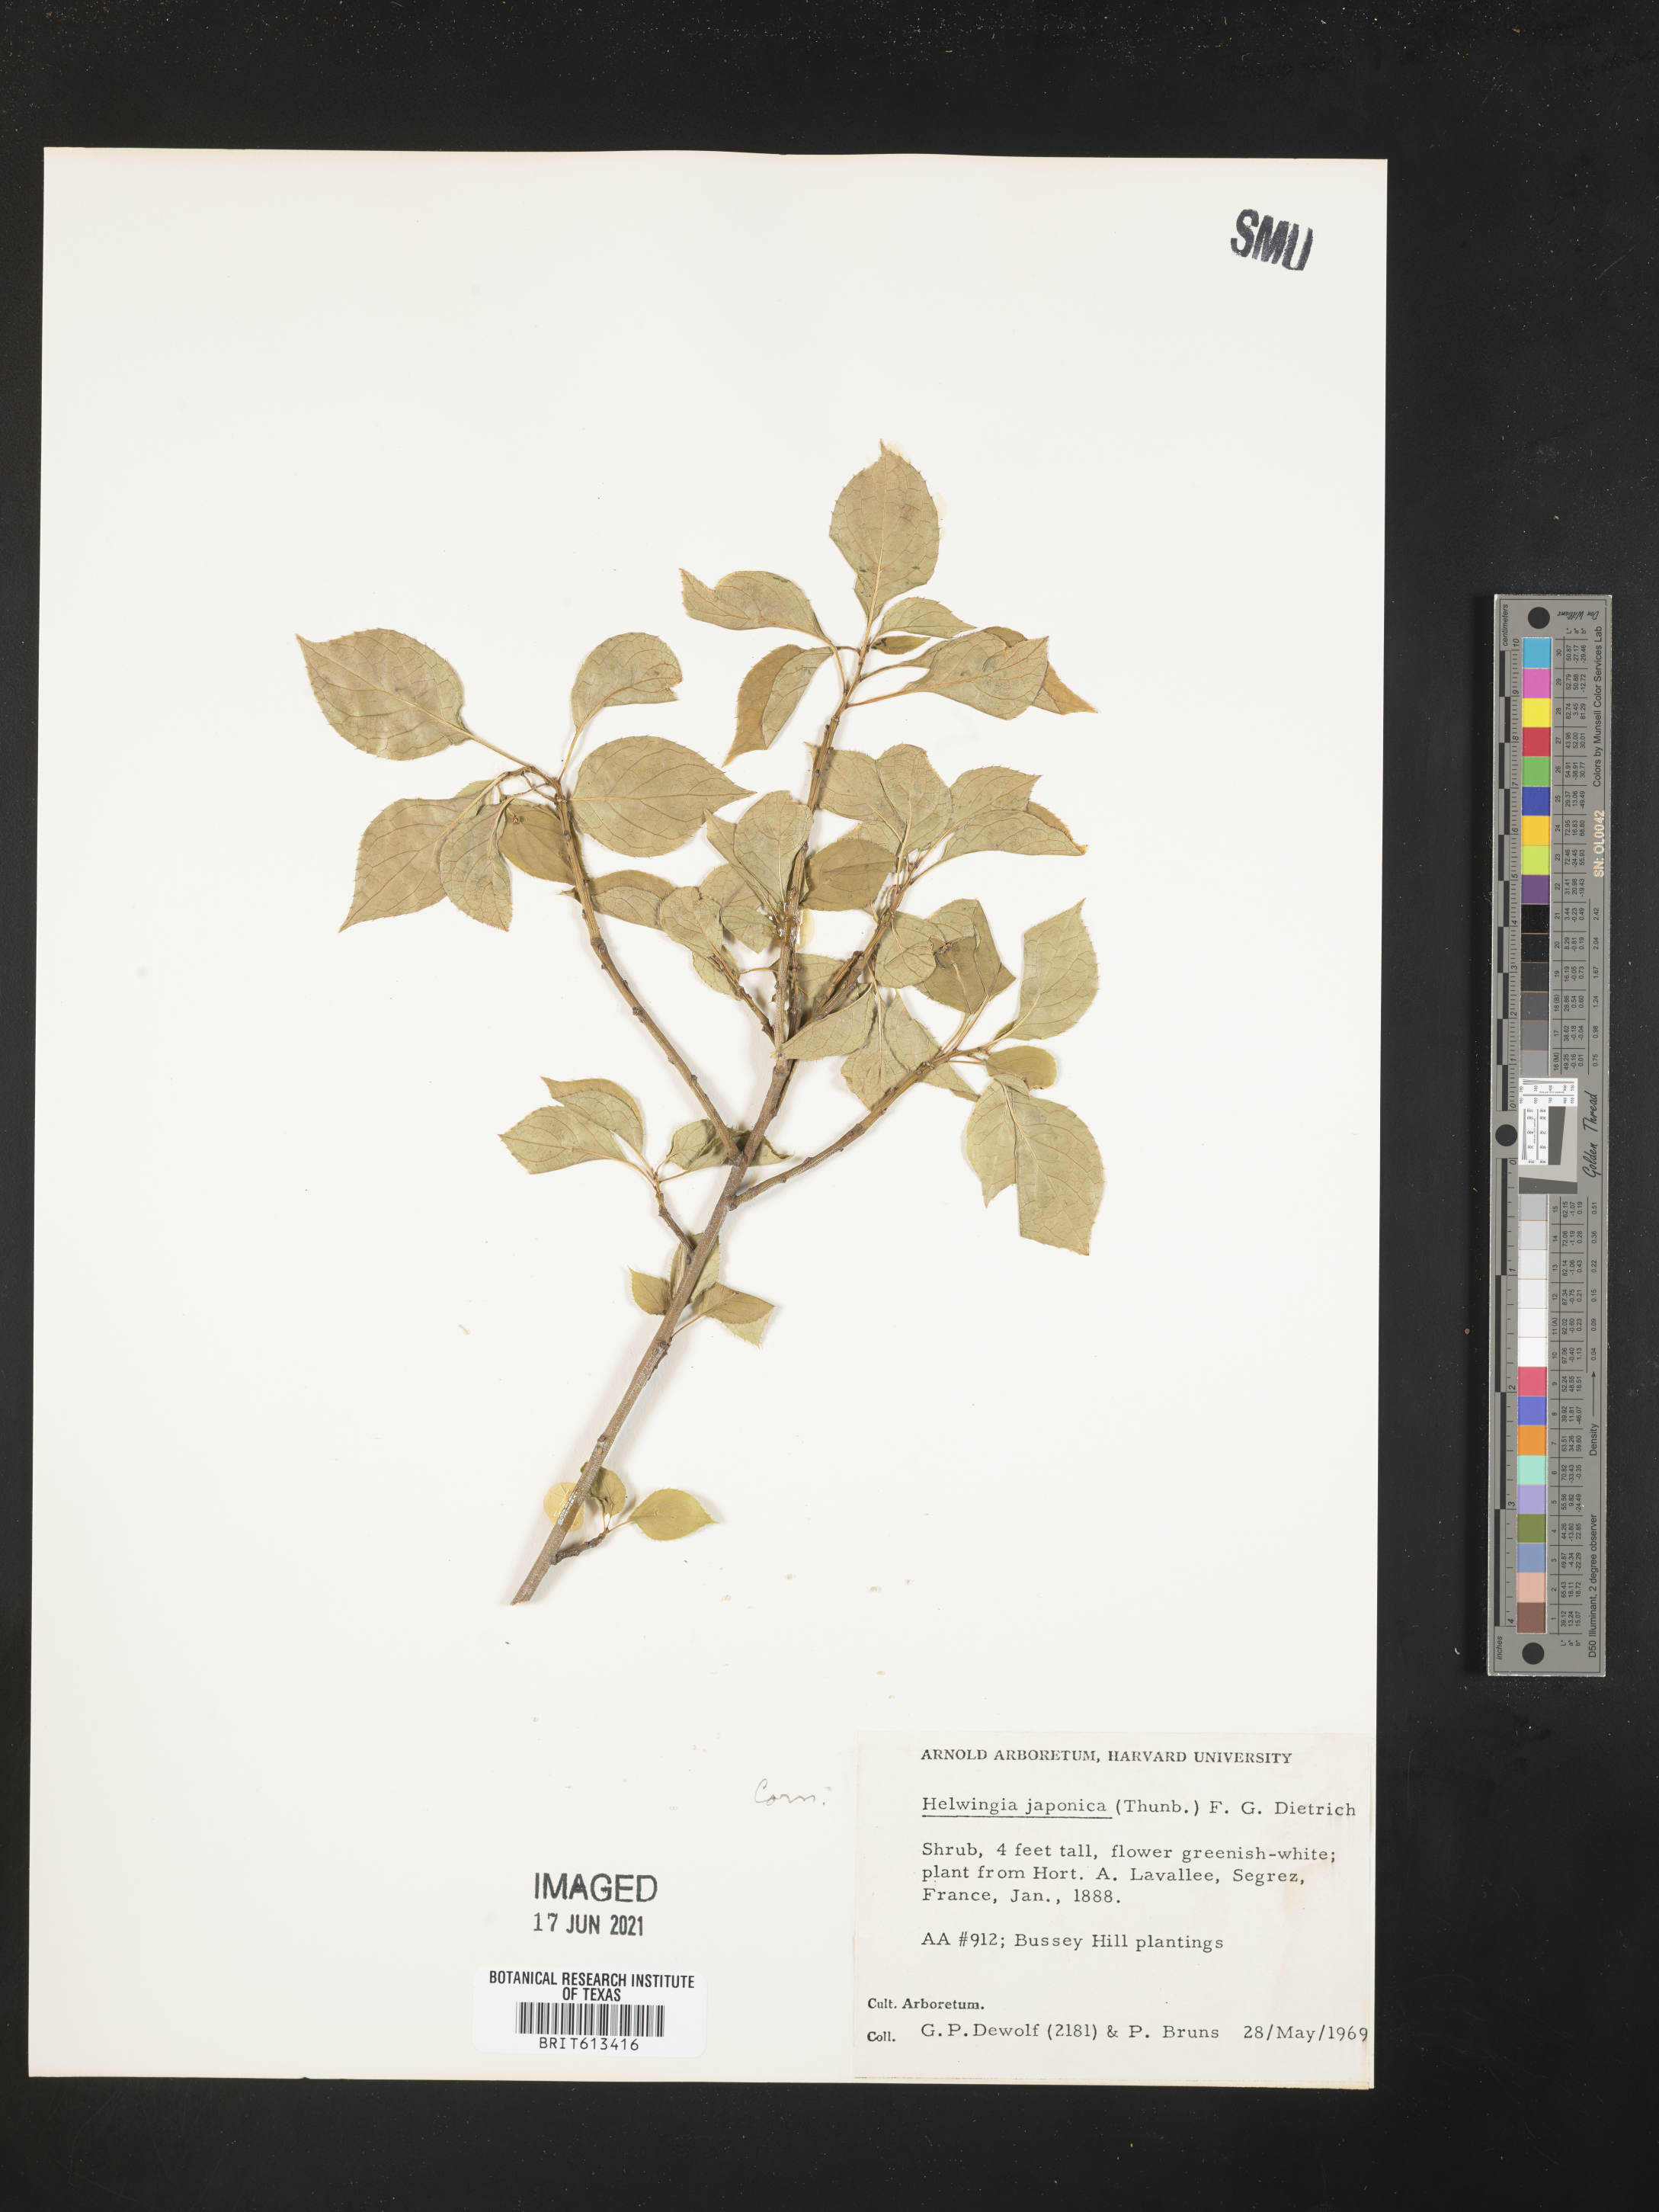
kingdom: Plantae
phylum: Tracheophyta
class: Magnoliopsida
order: Aquifoliales
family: Helwingiaceae
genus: Helwingia
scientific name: Helwingia japonica
